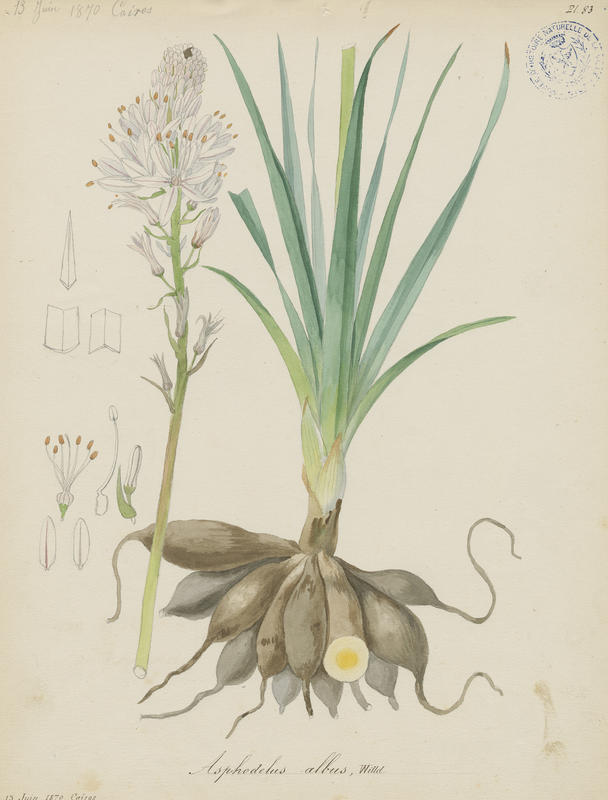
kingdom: Plantae
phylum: Tracheophyta
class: Liliopsida
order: Asparagales
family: Asphodelaceae
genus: Asphodelus
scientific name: Asphodelus albus
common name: White asphodel
